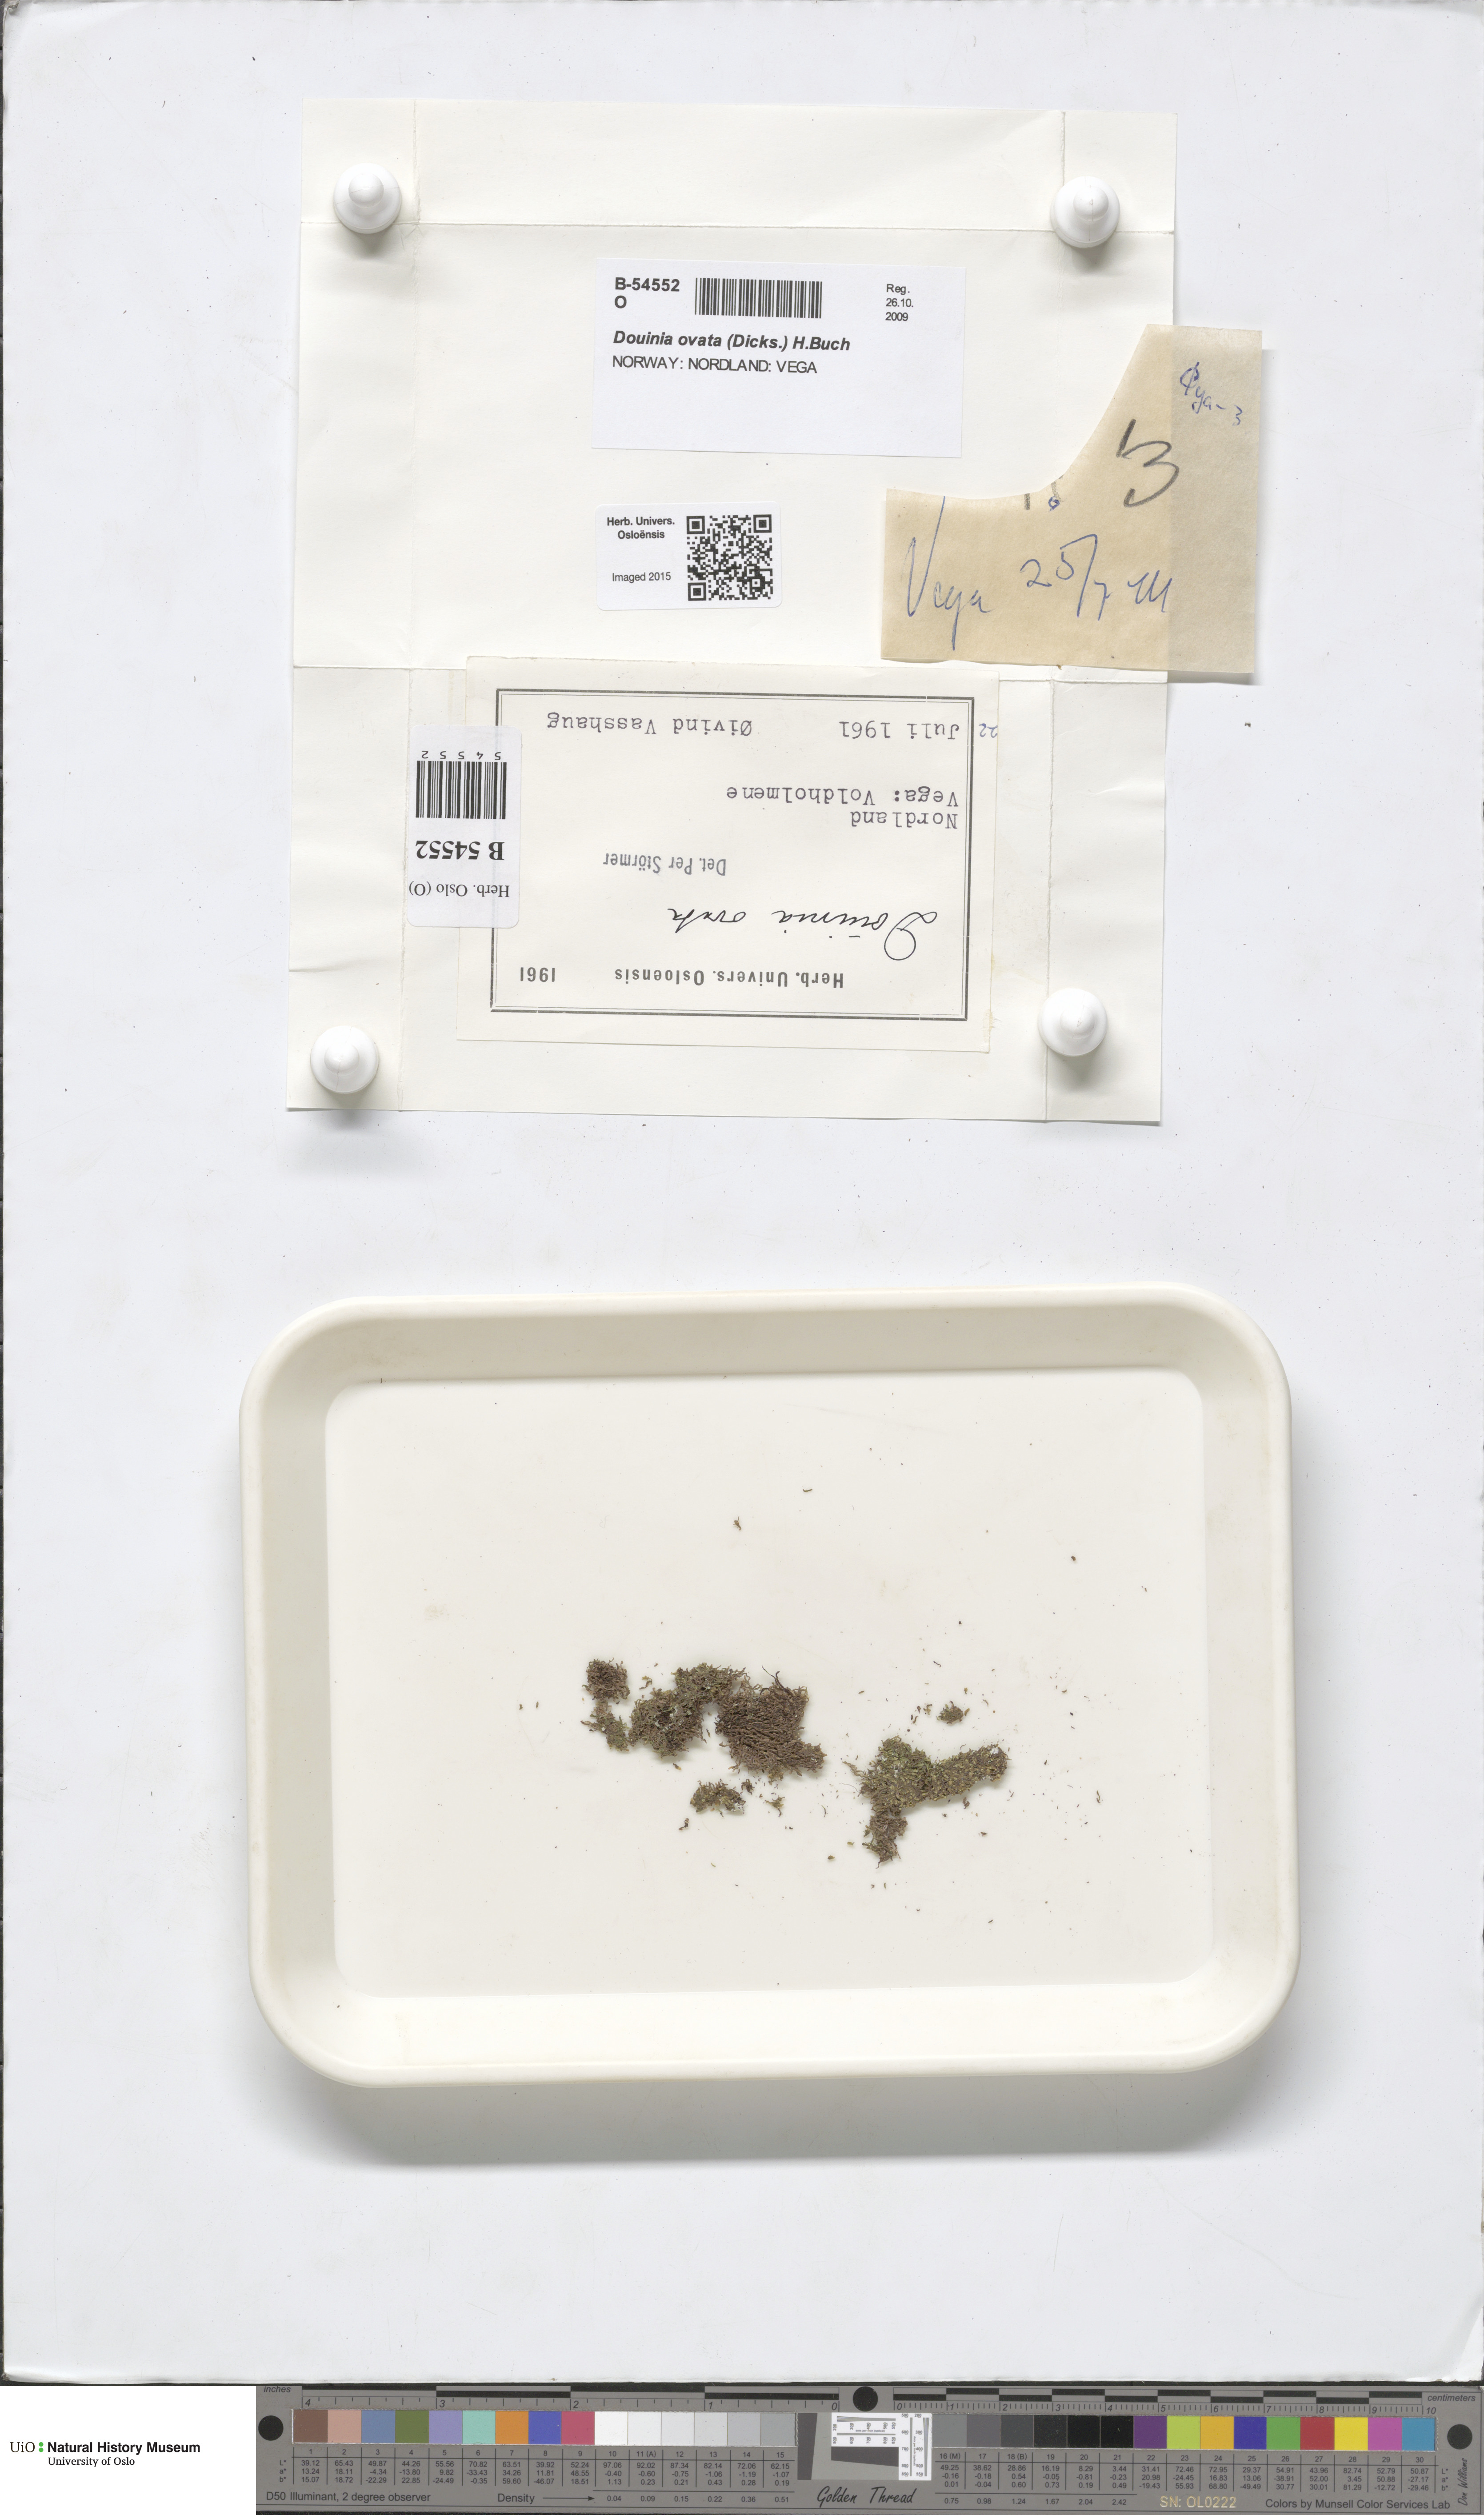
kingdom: Plantae
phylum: Marchantiophyta
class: Jungermanniopsida
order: Jungermanniales
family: Scapaniaceae
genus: Douinia
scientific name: Douinia ovata
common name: Waxy earwort
